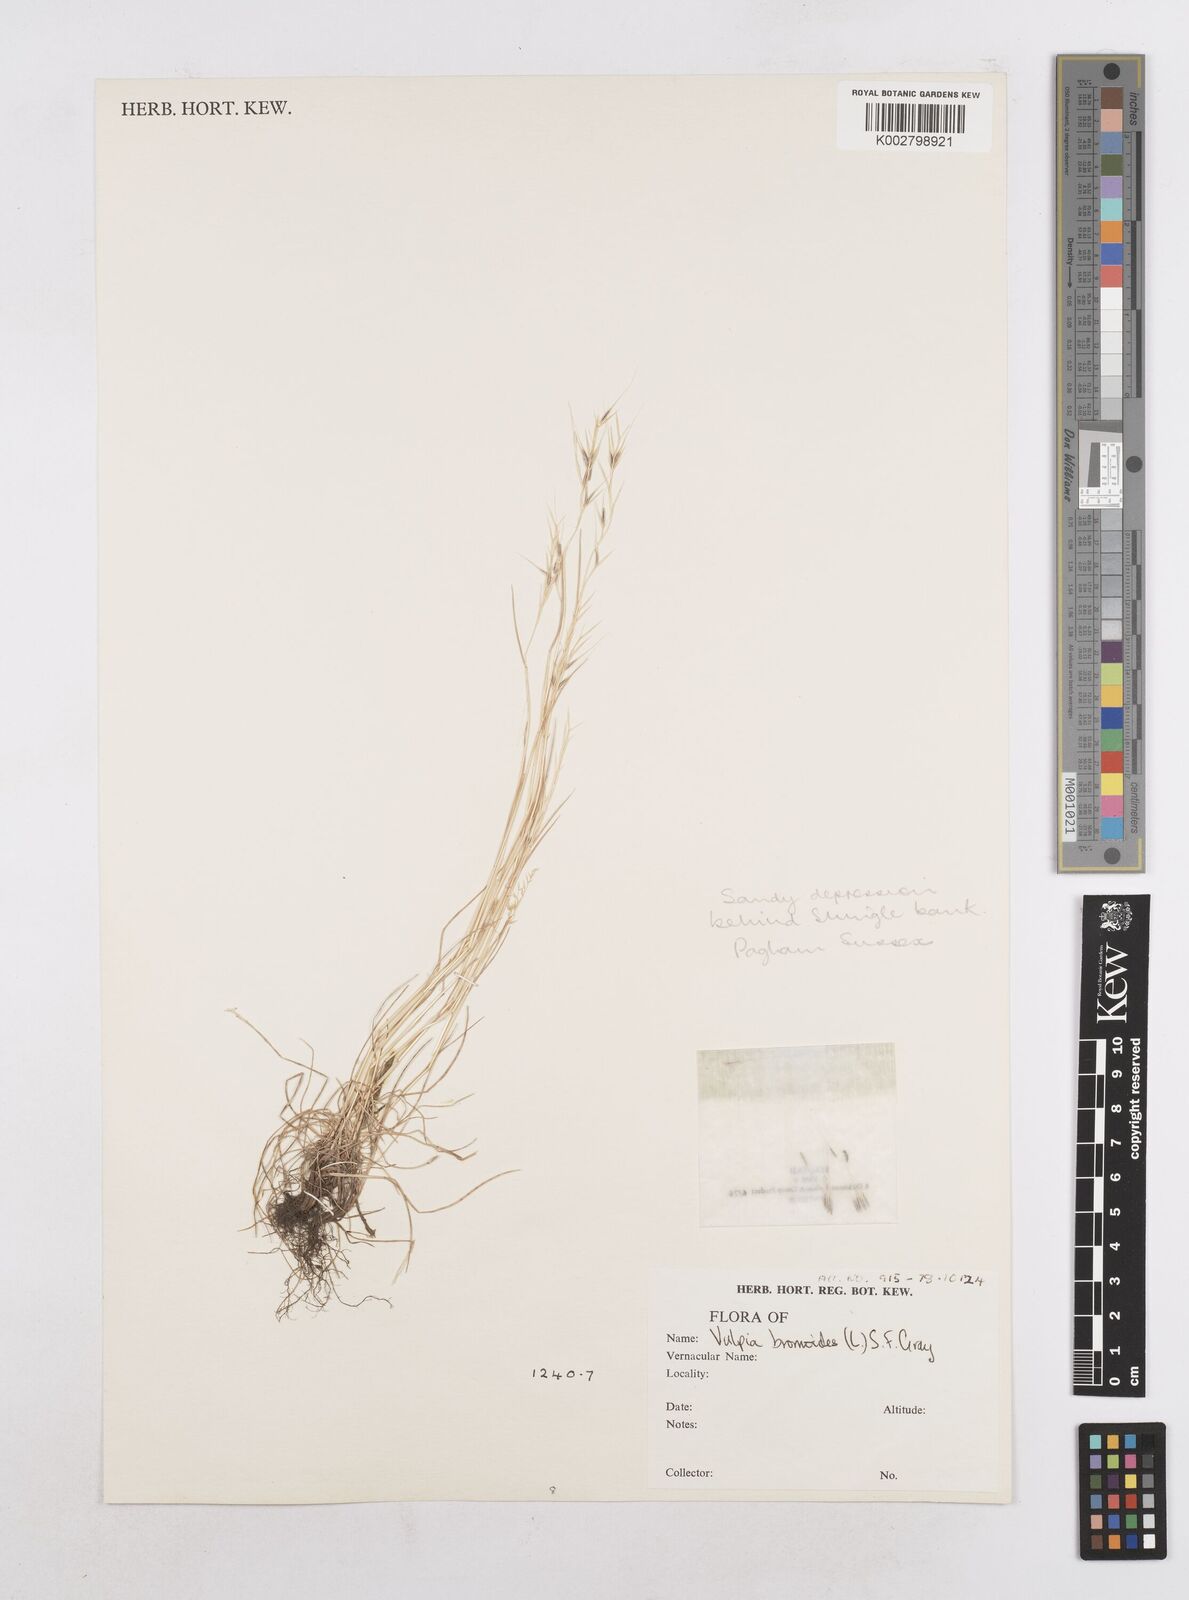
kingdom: Plantae
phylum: Tracheophyta
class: Liliopsida
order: Poales
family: Poaceae
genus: Festuca
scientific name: Festuca bromoides
